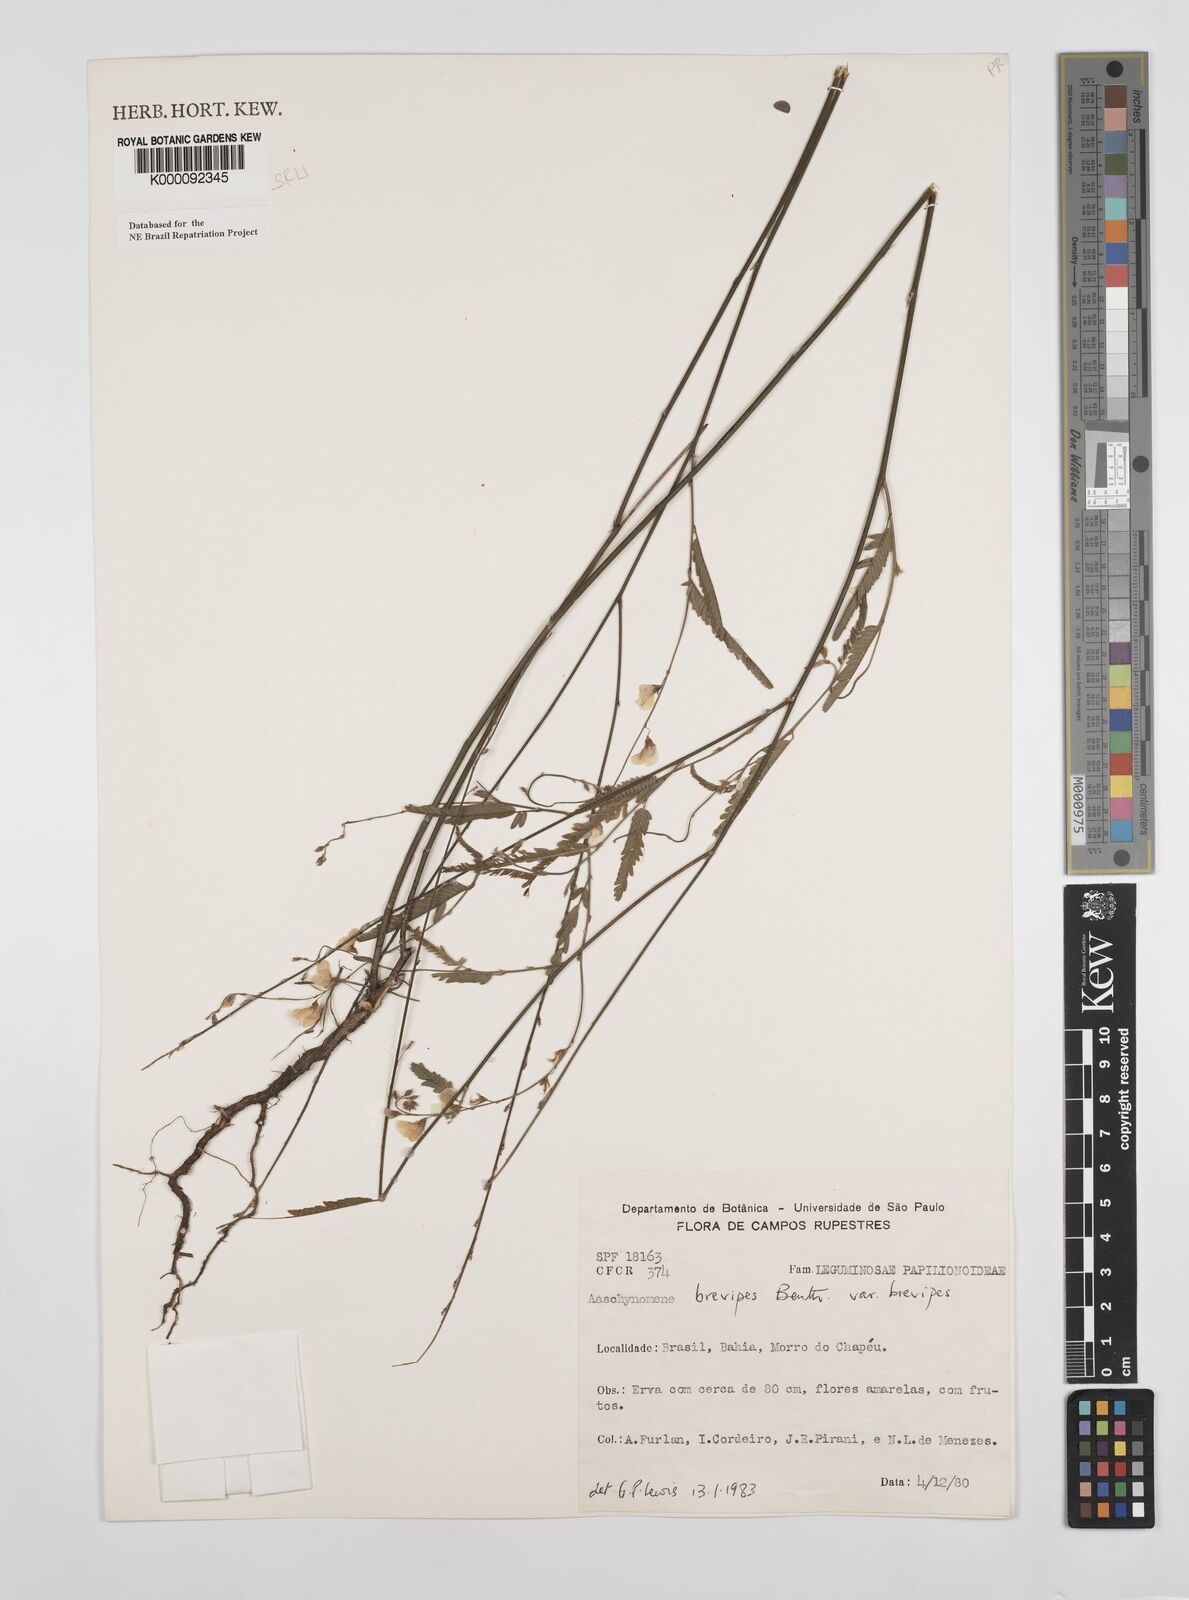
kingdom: Plantae
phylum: Tracheophyta
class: Magnoliopsida
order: Fabales
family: Fabaceae
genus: Ctenodon
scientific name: Ctenodon brevipes
